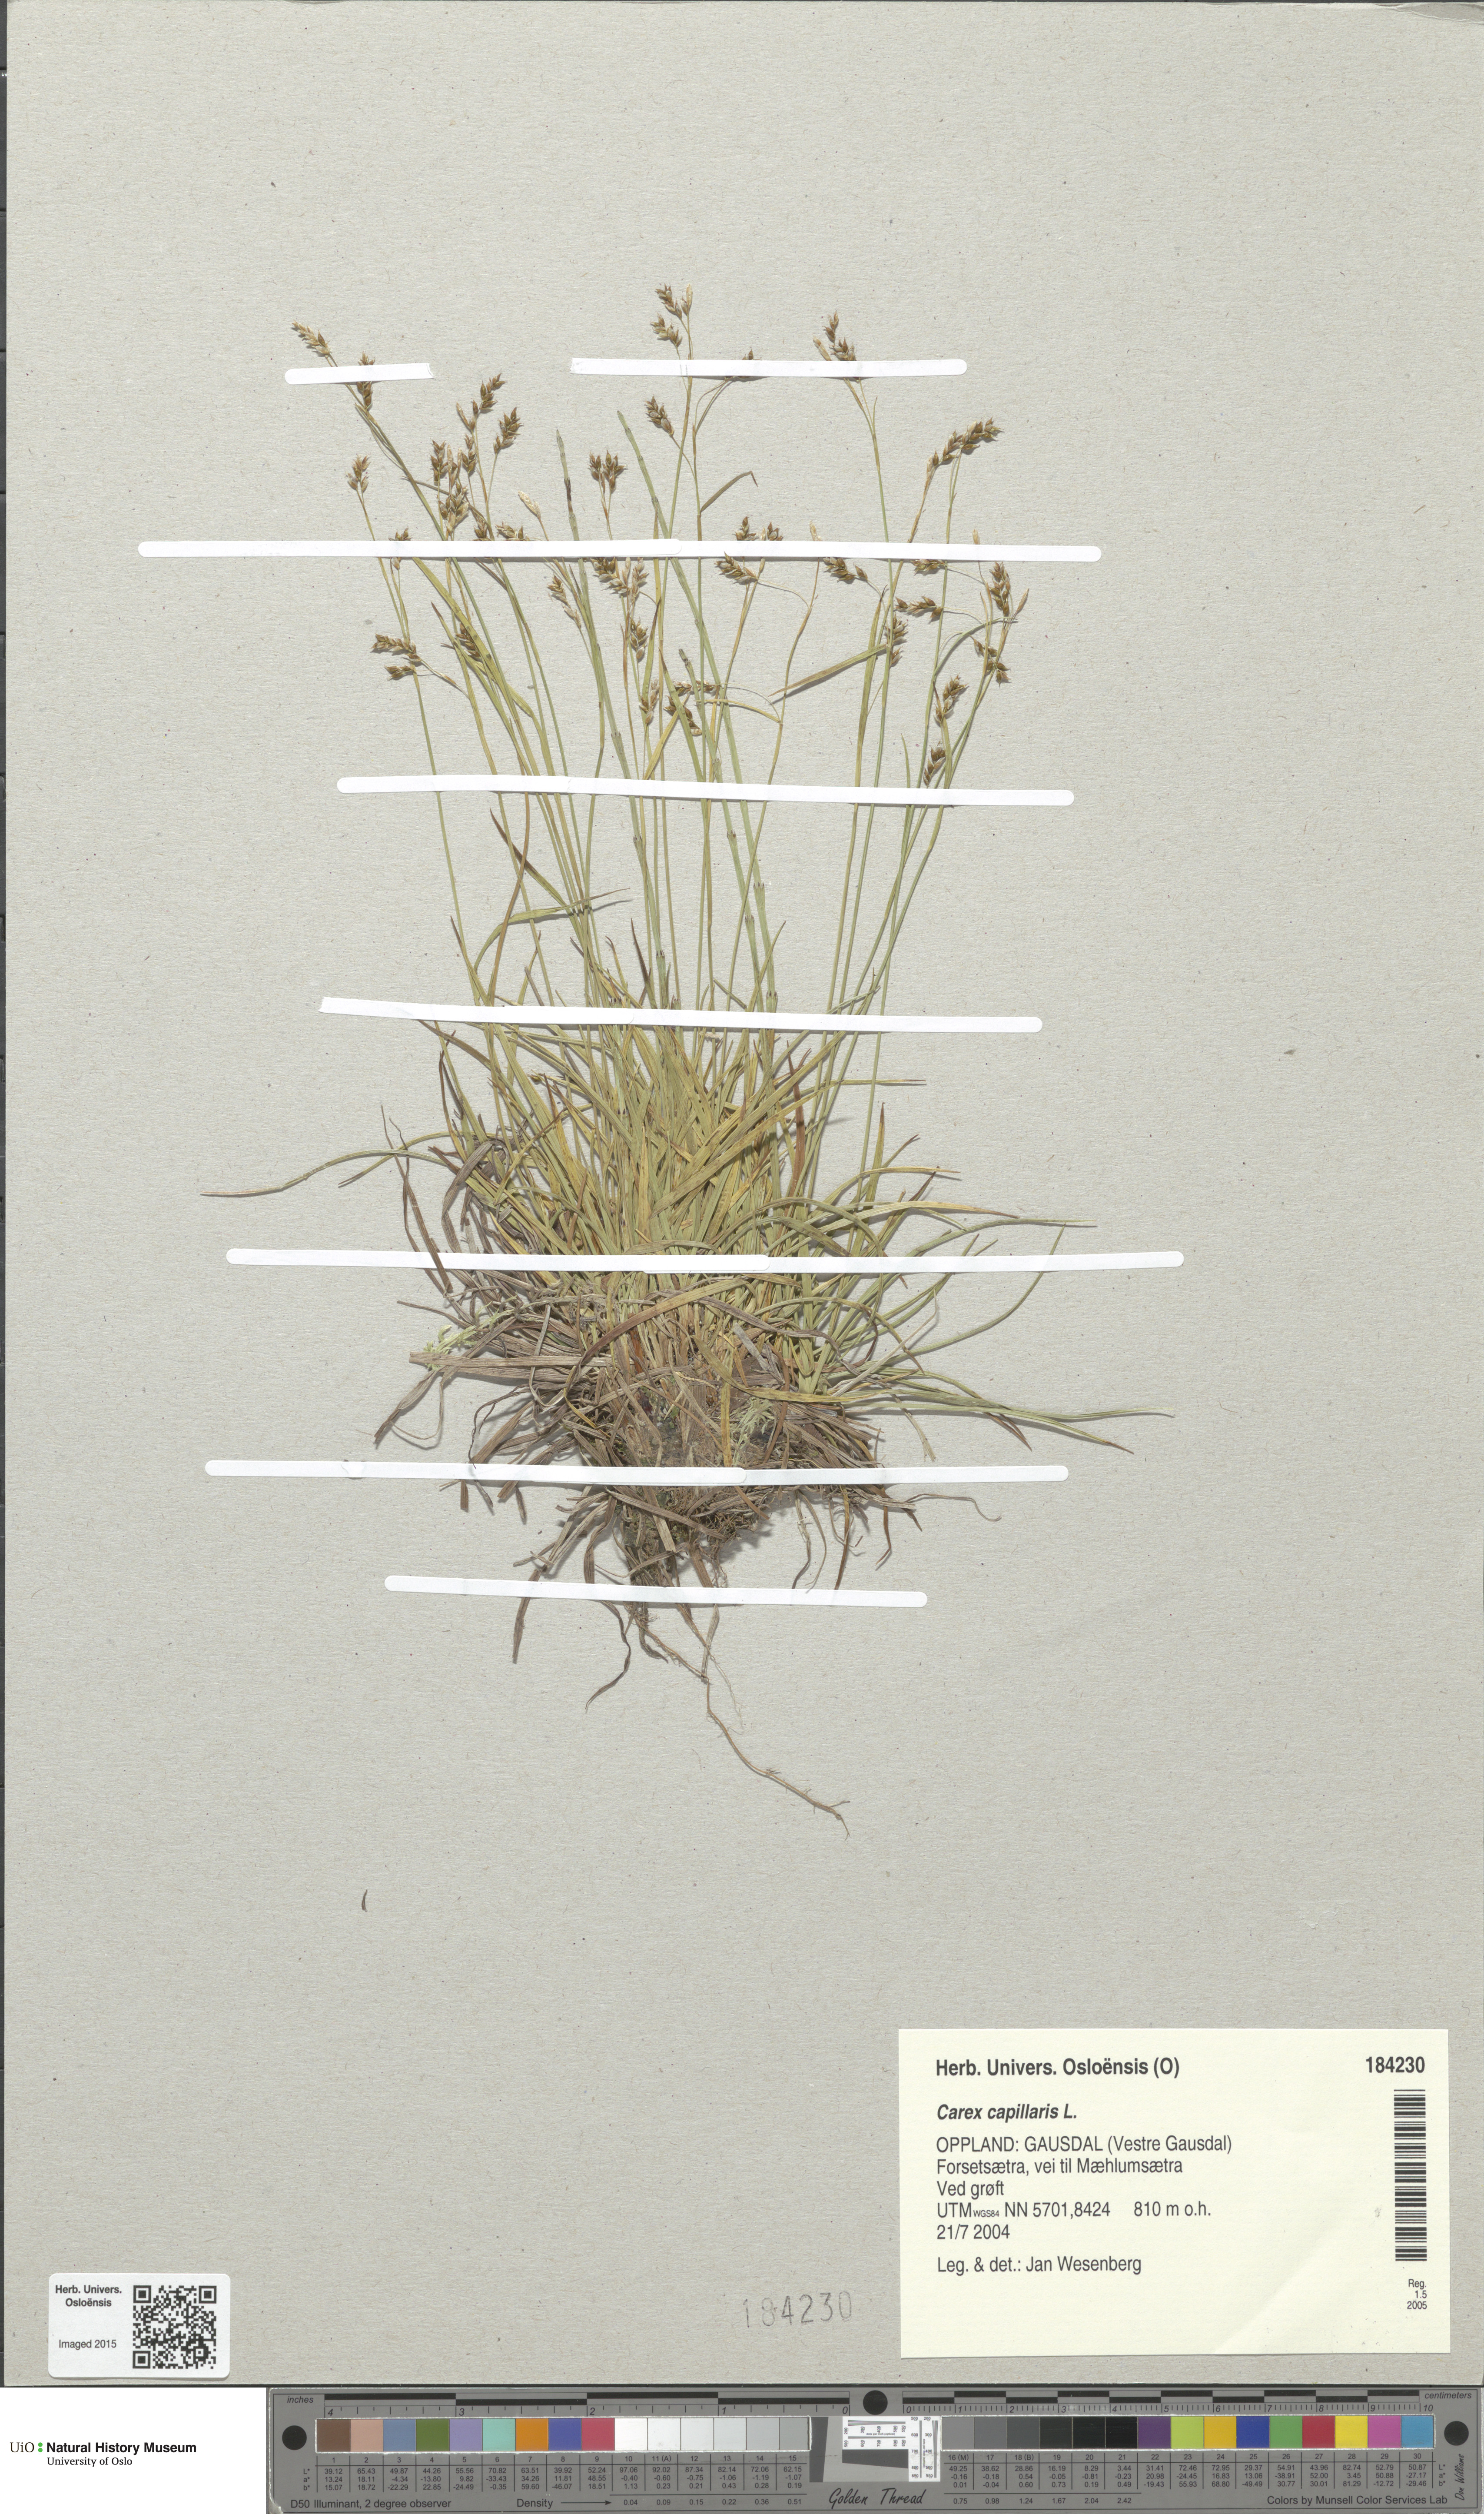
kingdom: Plantae
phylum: Tracheophyta
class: Liliopsida
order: Poales
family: Cyperaceae
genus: Carex
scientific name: Carex capillaris
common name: Hair sedge
